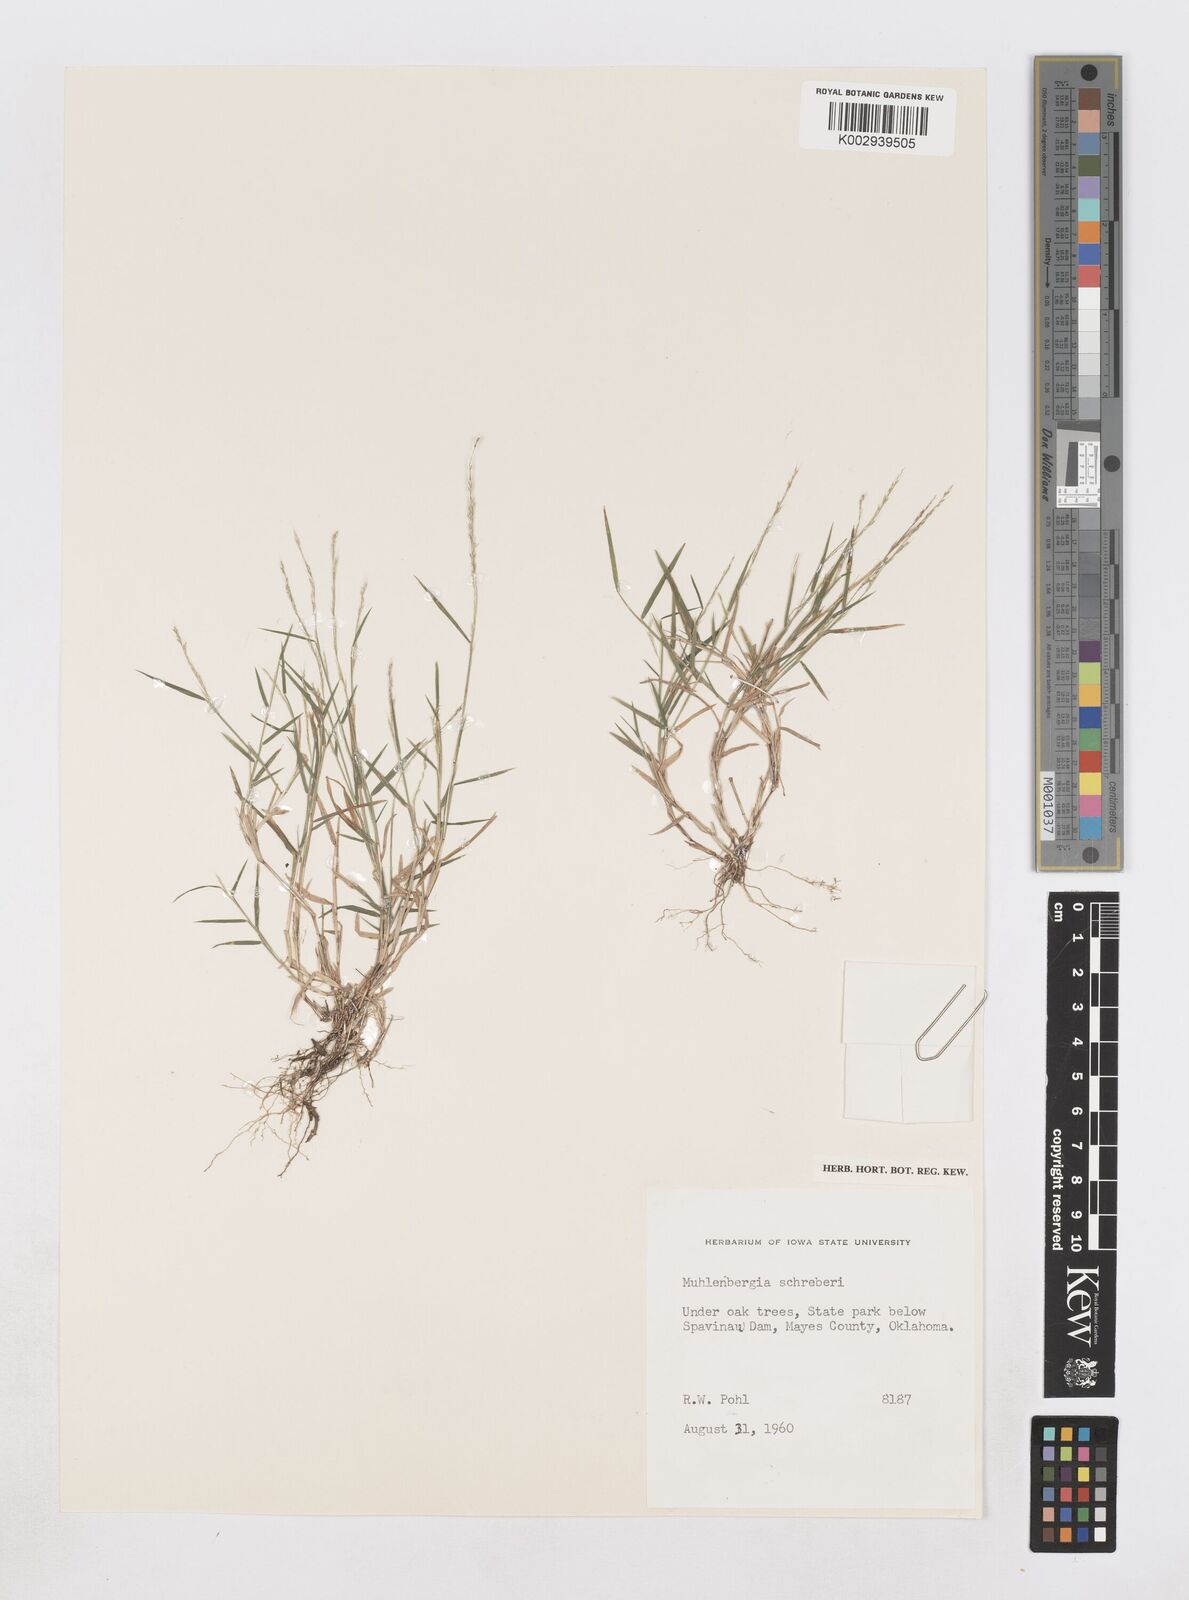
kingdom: Plantae
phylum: Tracheophyta
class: Liliopsida
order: Poales
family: Poaceae
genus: Muhlenbergia
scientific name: Muhlenbergia schreberi
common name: Nimblewill
